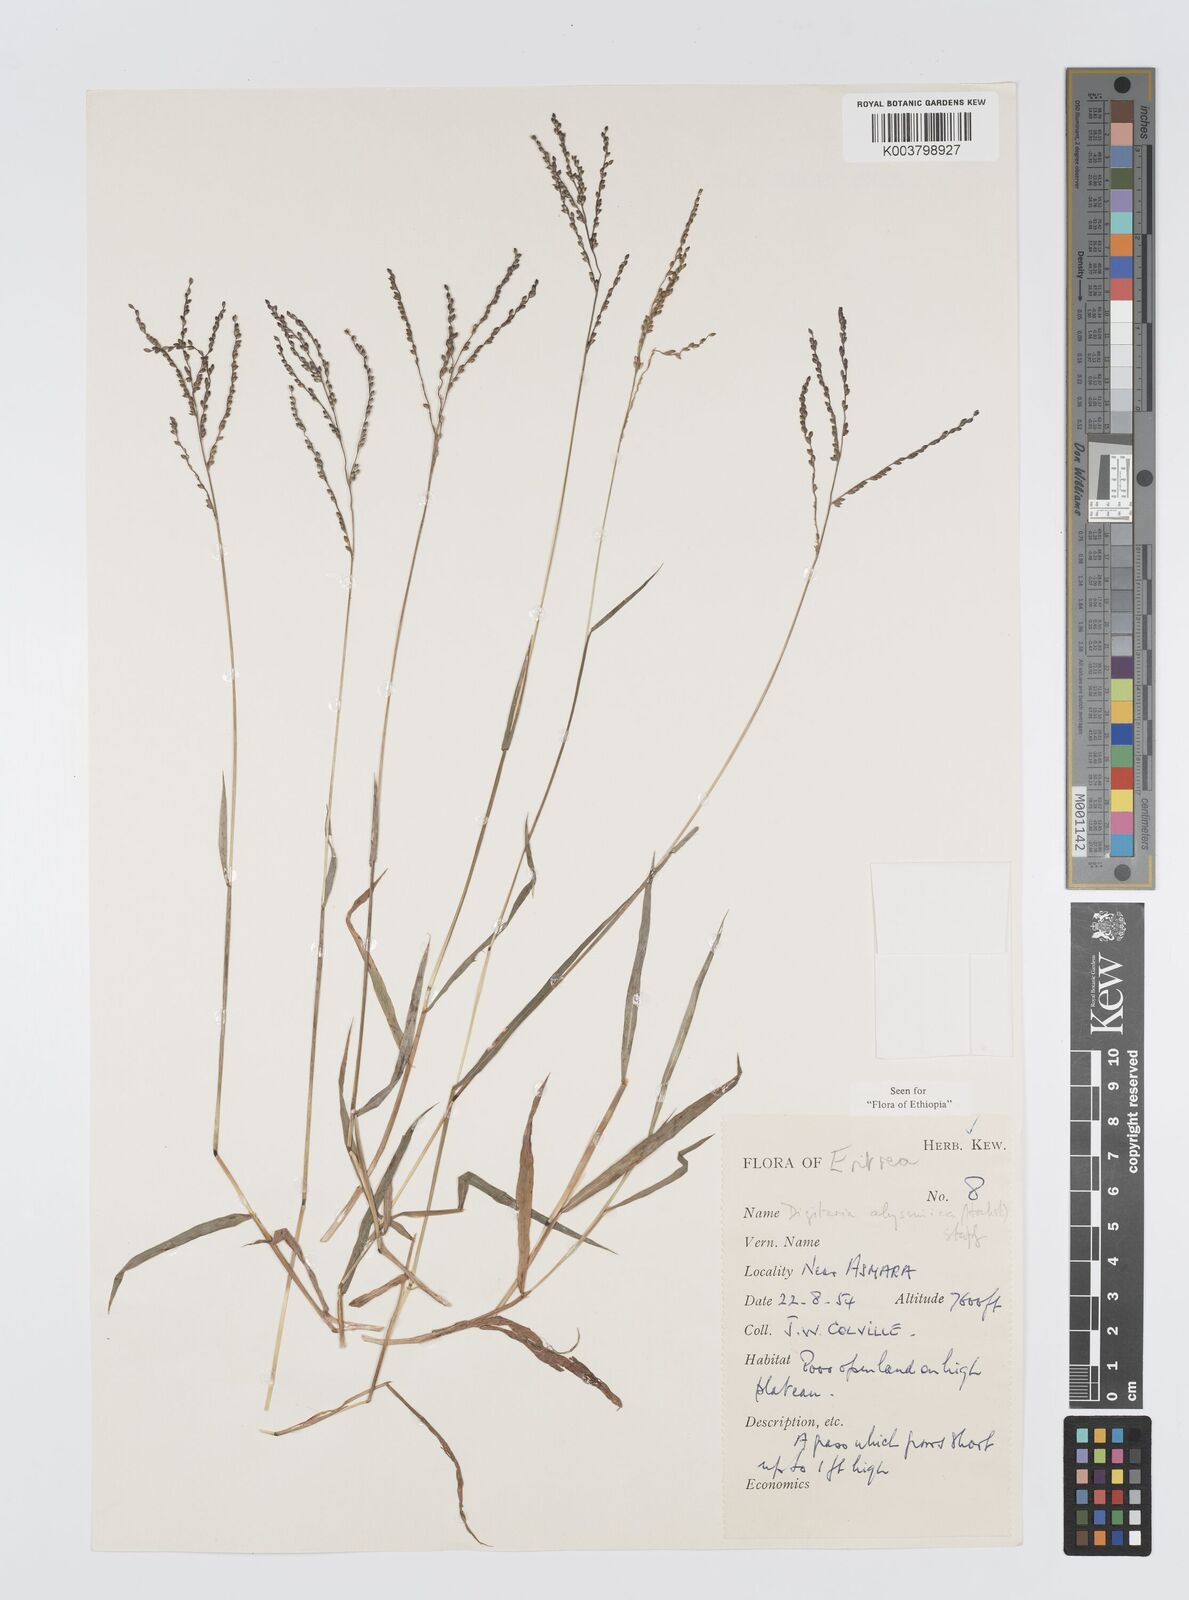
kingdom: Plantae
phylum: Tracheophyta
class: Liliopsida
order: Poales
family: Poaceae
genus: Digitaria
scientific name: Digitaria abyssinica
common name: African couchgrass
